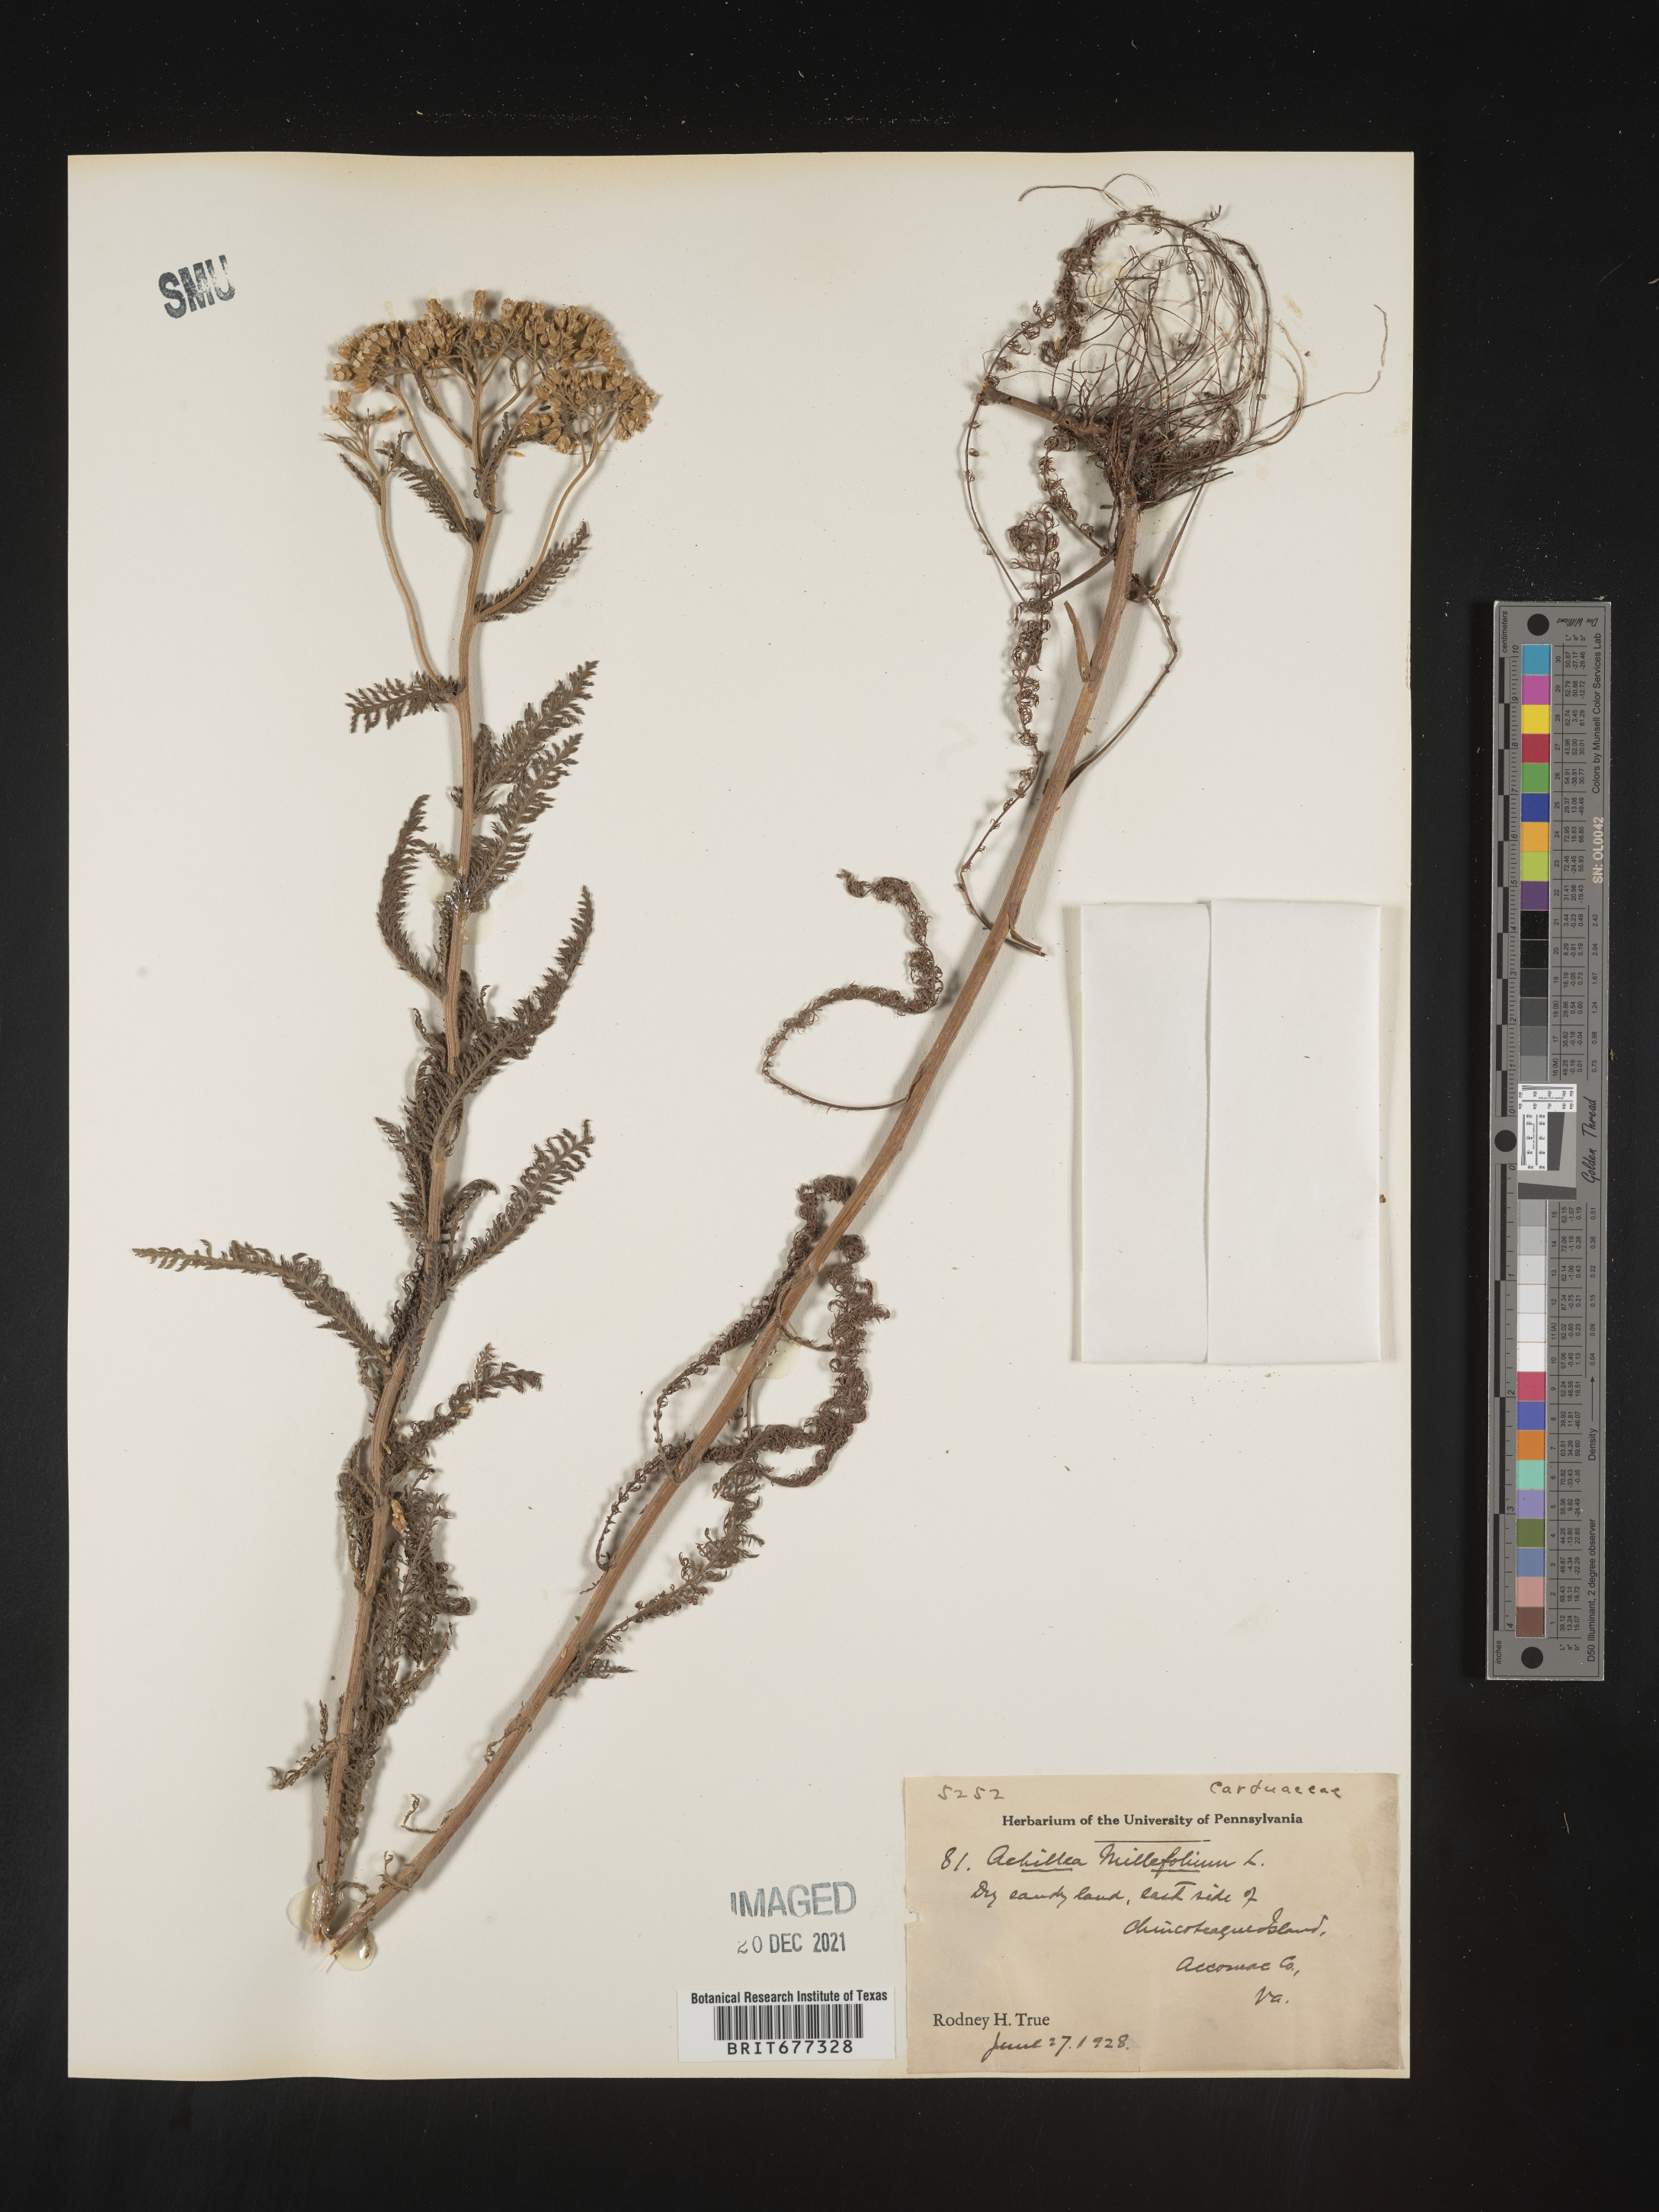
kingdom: Plantae
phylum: Tracheophyta
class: Magnoliopsida
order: Asterales
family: Asteraceae
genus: Achillea
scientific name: Achillea millefolium
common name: Yarrow
